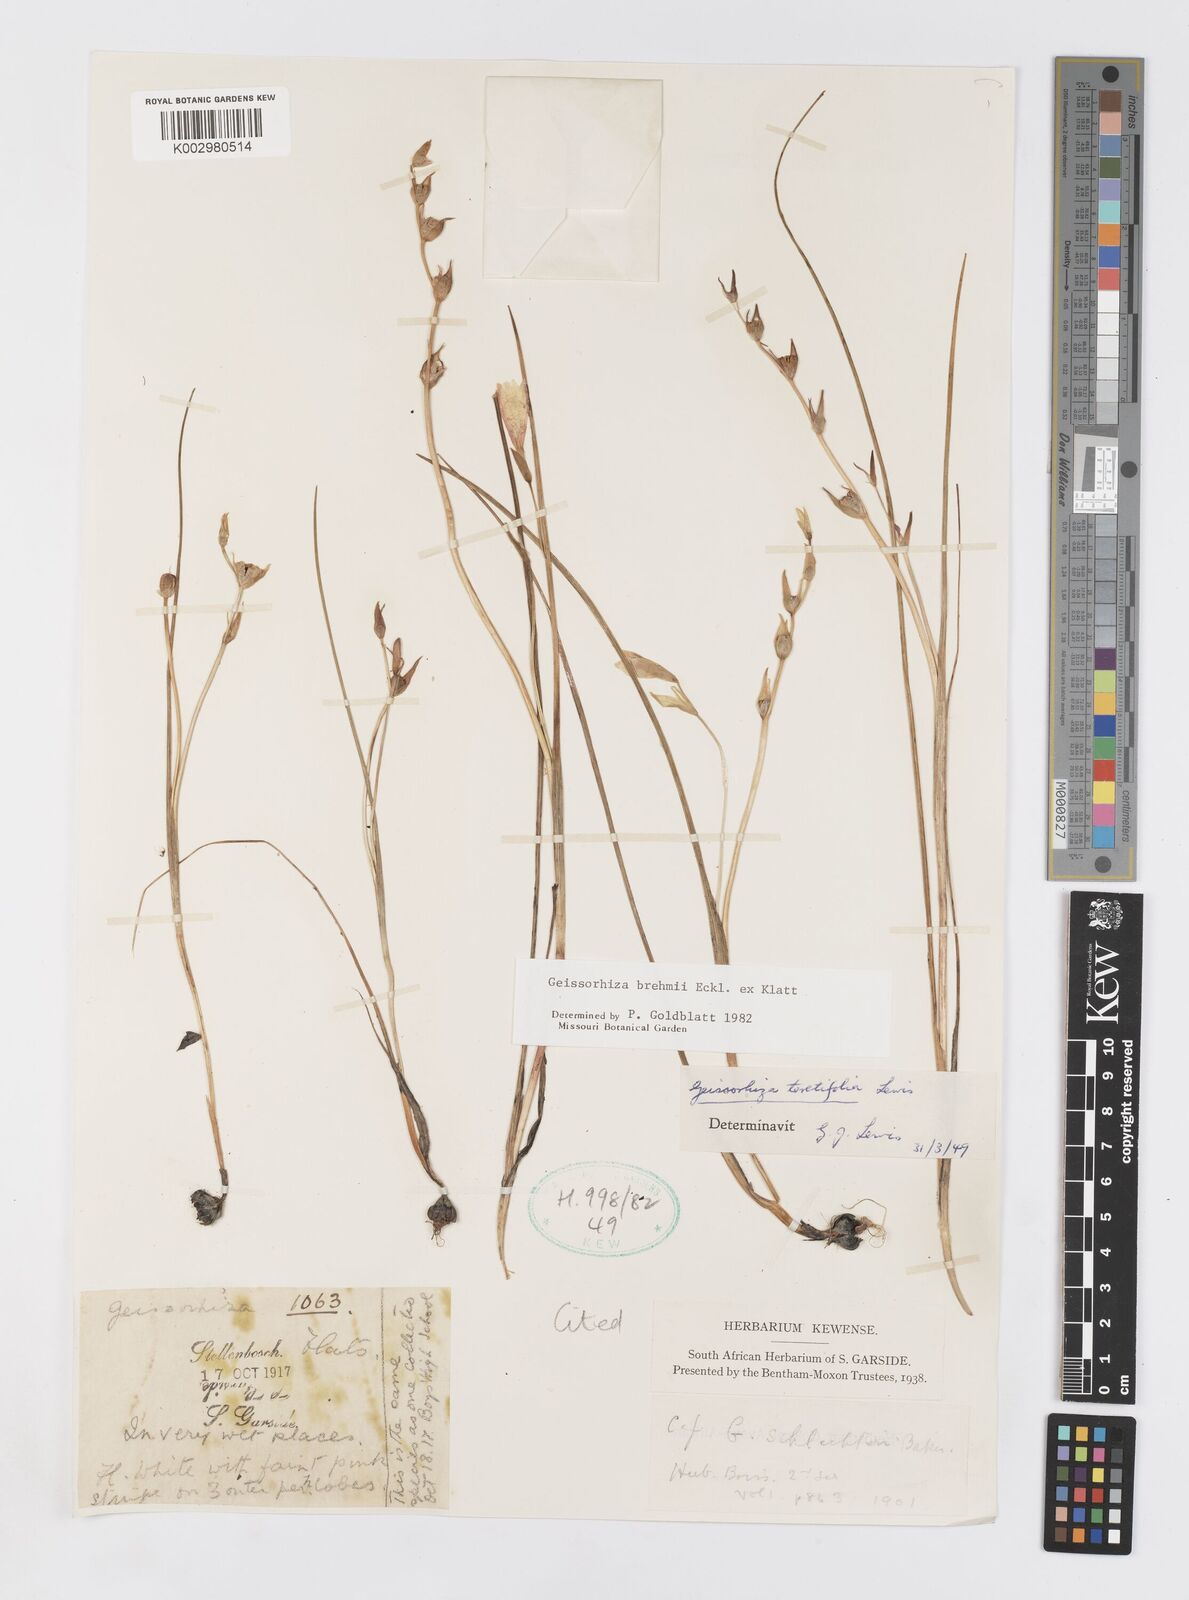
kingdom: Plantae
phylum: Tracheophyta
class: Liliopsida
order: Asparagales
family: Iridaceae
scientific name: Iridaceae
